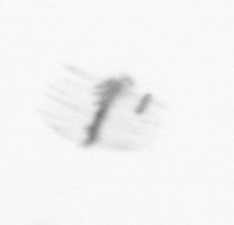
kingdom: Chromista
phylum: Ochrophyta
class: Bacillariophyceae
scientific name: Bacillariophyceae
